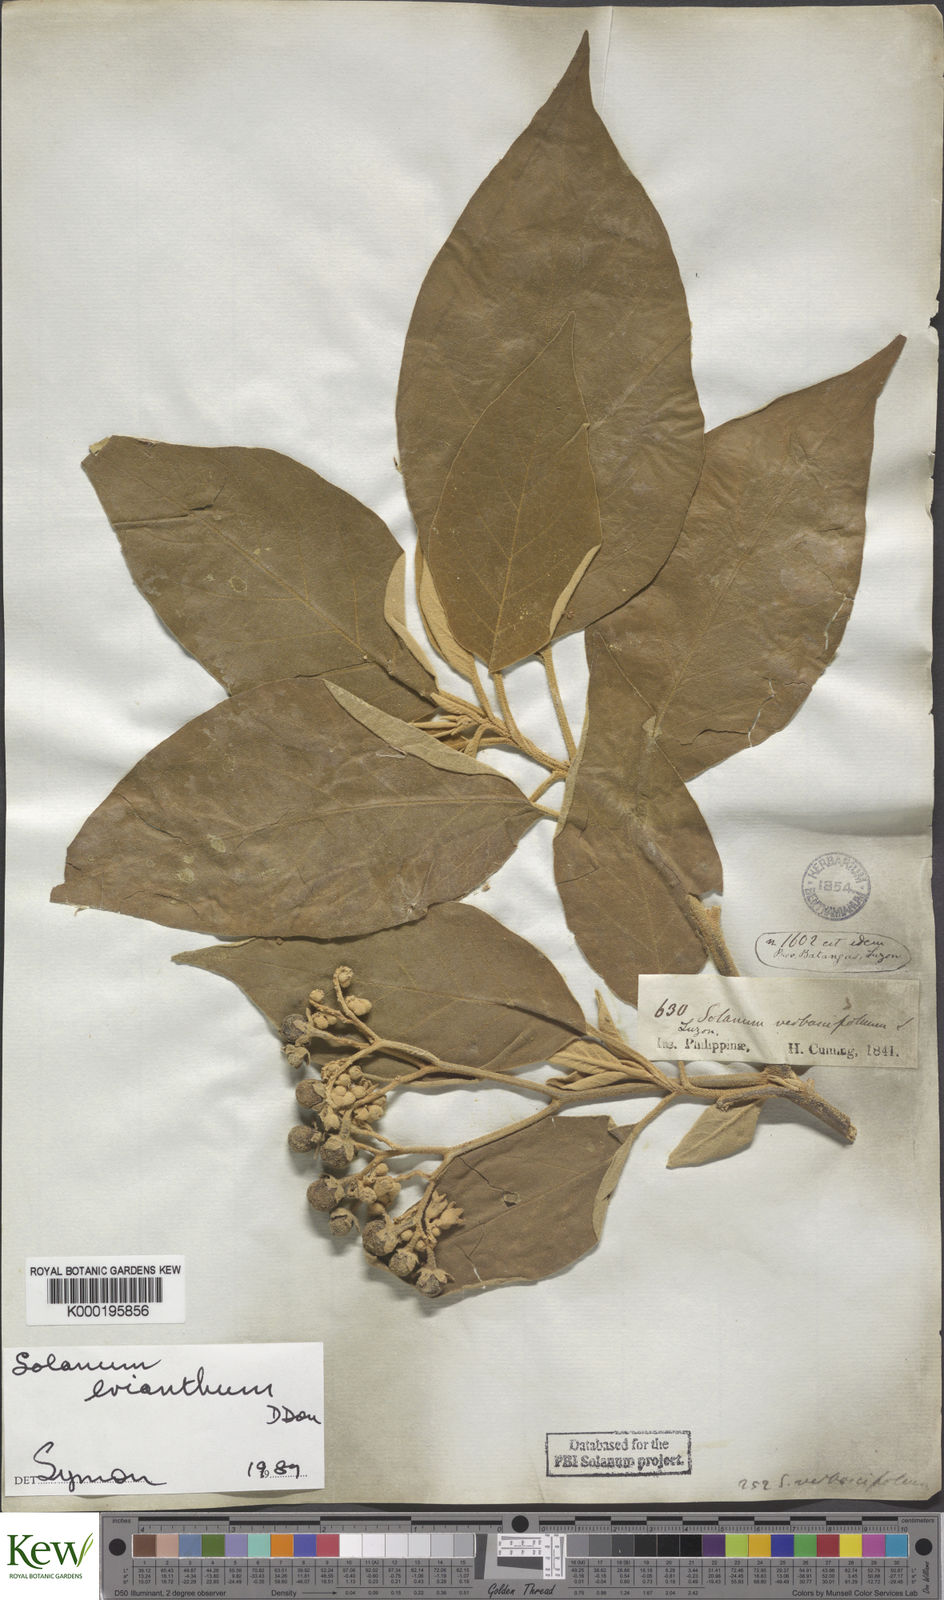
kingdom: Plantae
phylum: Tracheophyta
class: Magnoliopsida
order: Solanales
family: Solanaceae
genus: Solanum
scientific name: Solanum erianthum
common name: Tobacco-tree
